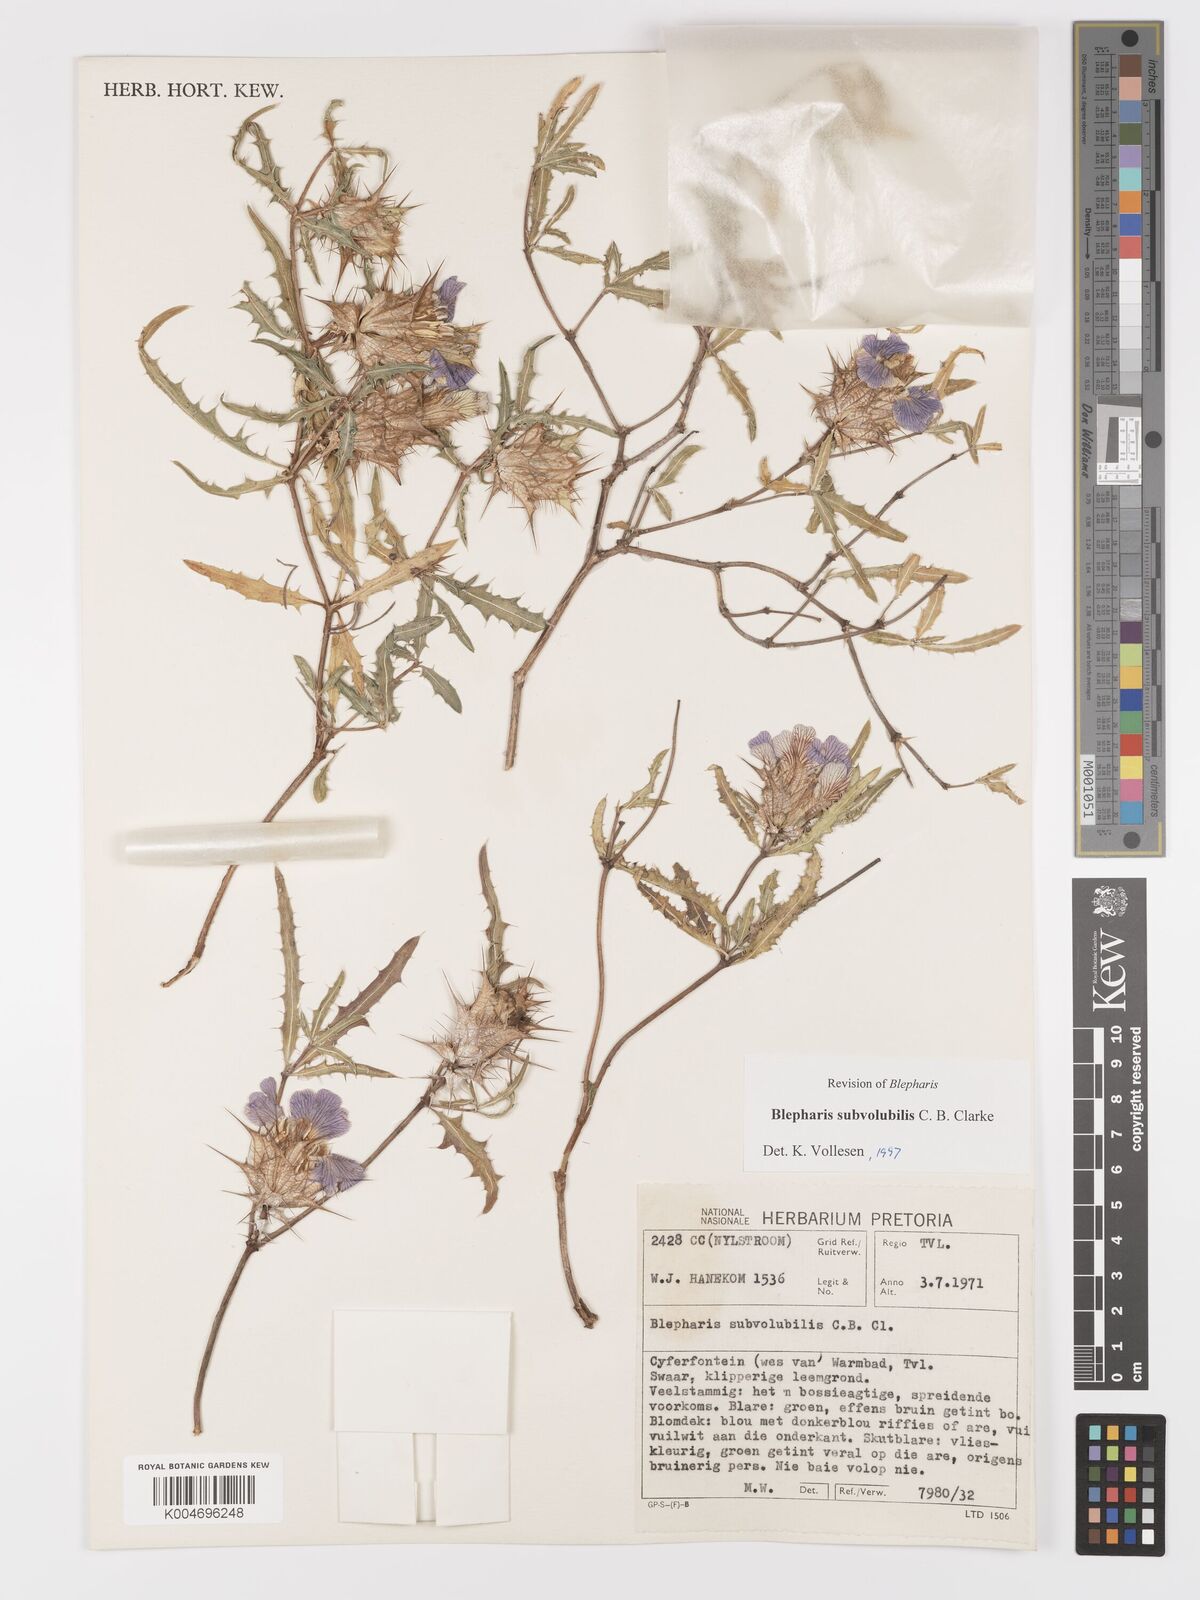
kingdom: Plantae
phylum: Tracheophyta
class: Magnoliopsida
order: Lamiales
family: Acanthaceae
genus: Blepharis
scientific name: Blepharis subvolubilis
